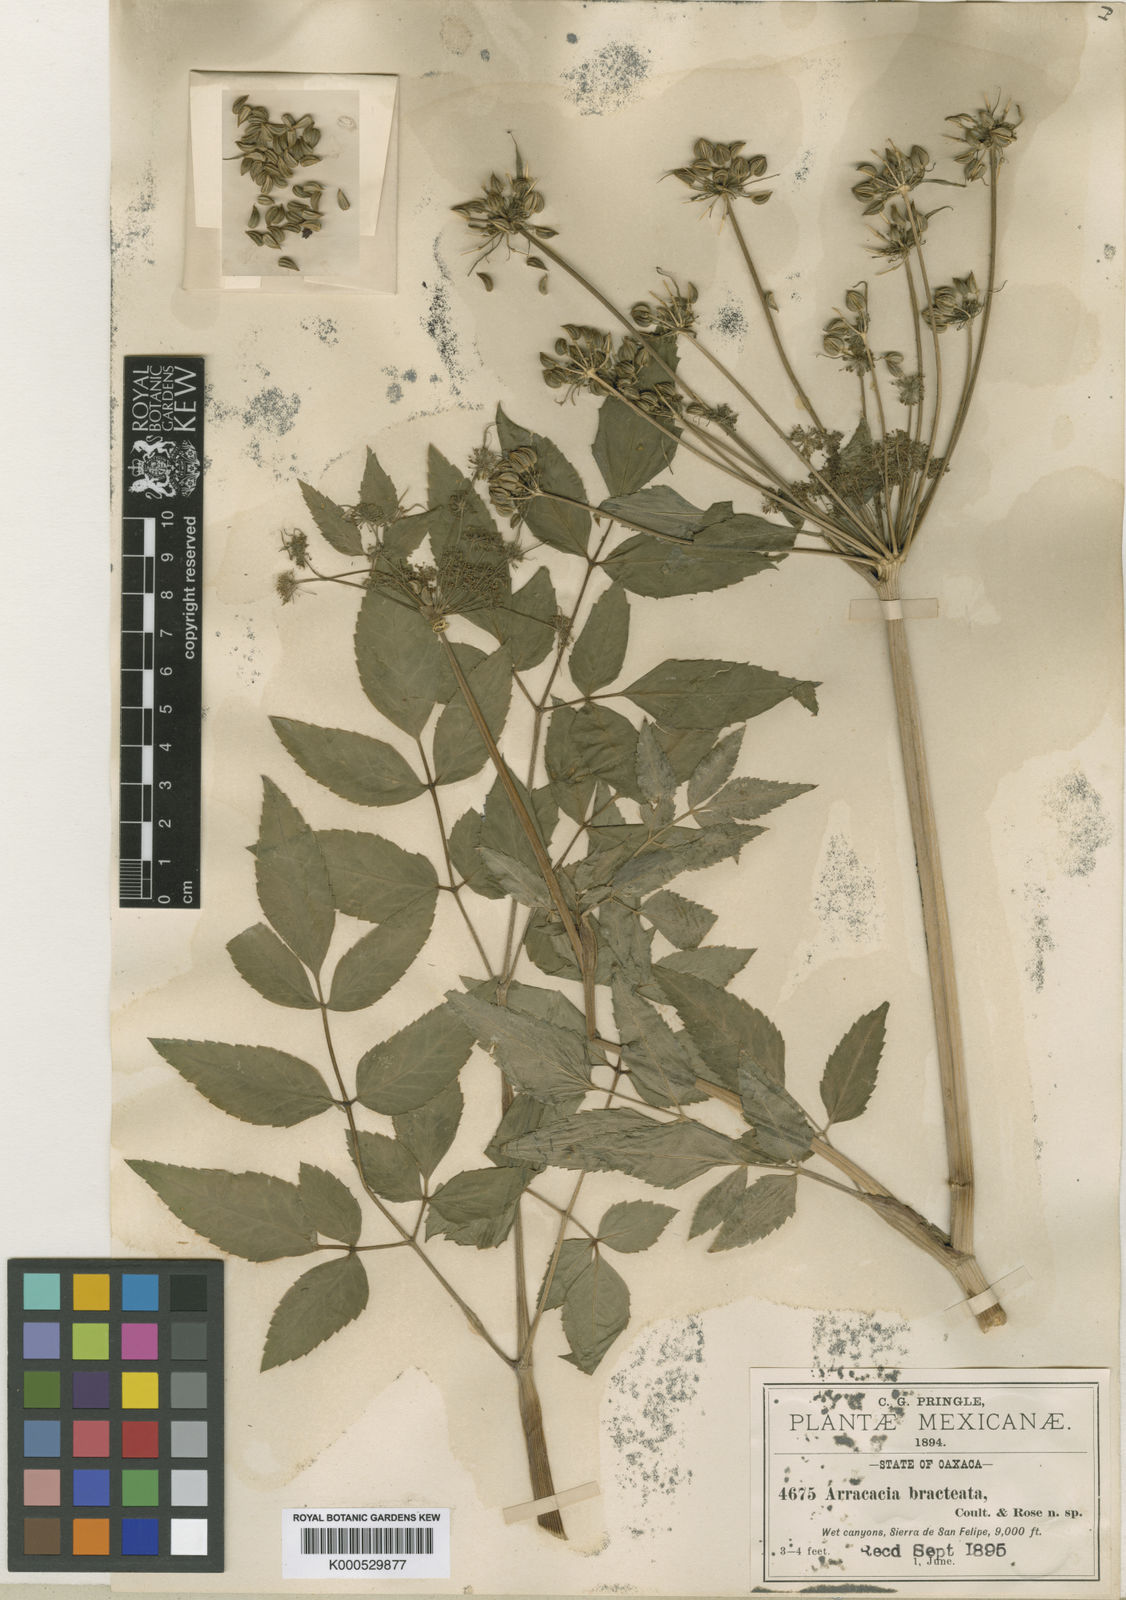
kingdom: Plantae
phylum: Tracheophyta
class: Magnoliopsida
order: Apiales
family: Apiaceae
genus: Arracacia
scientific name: Arracacia bracteata
